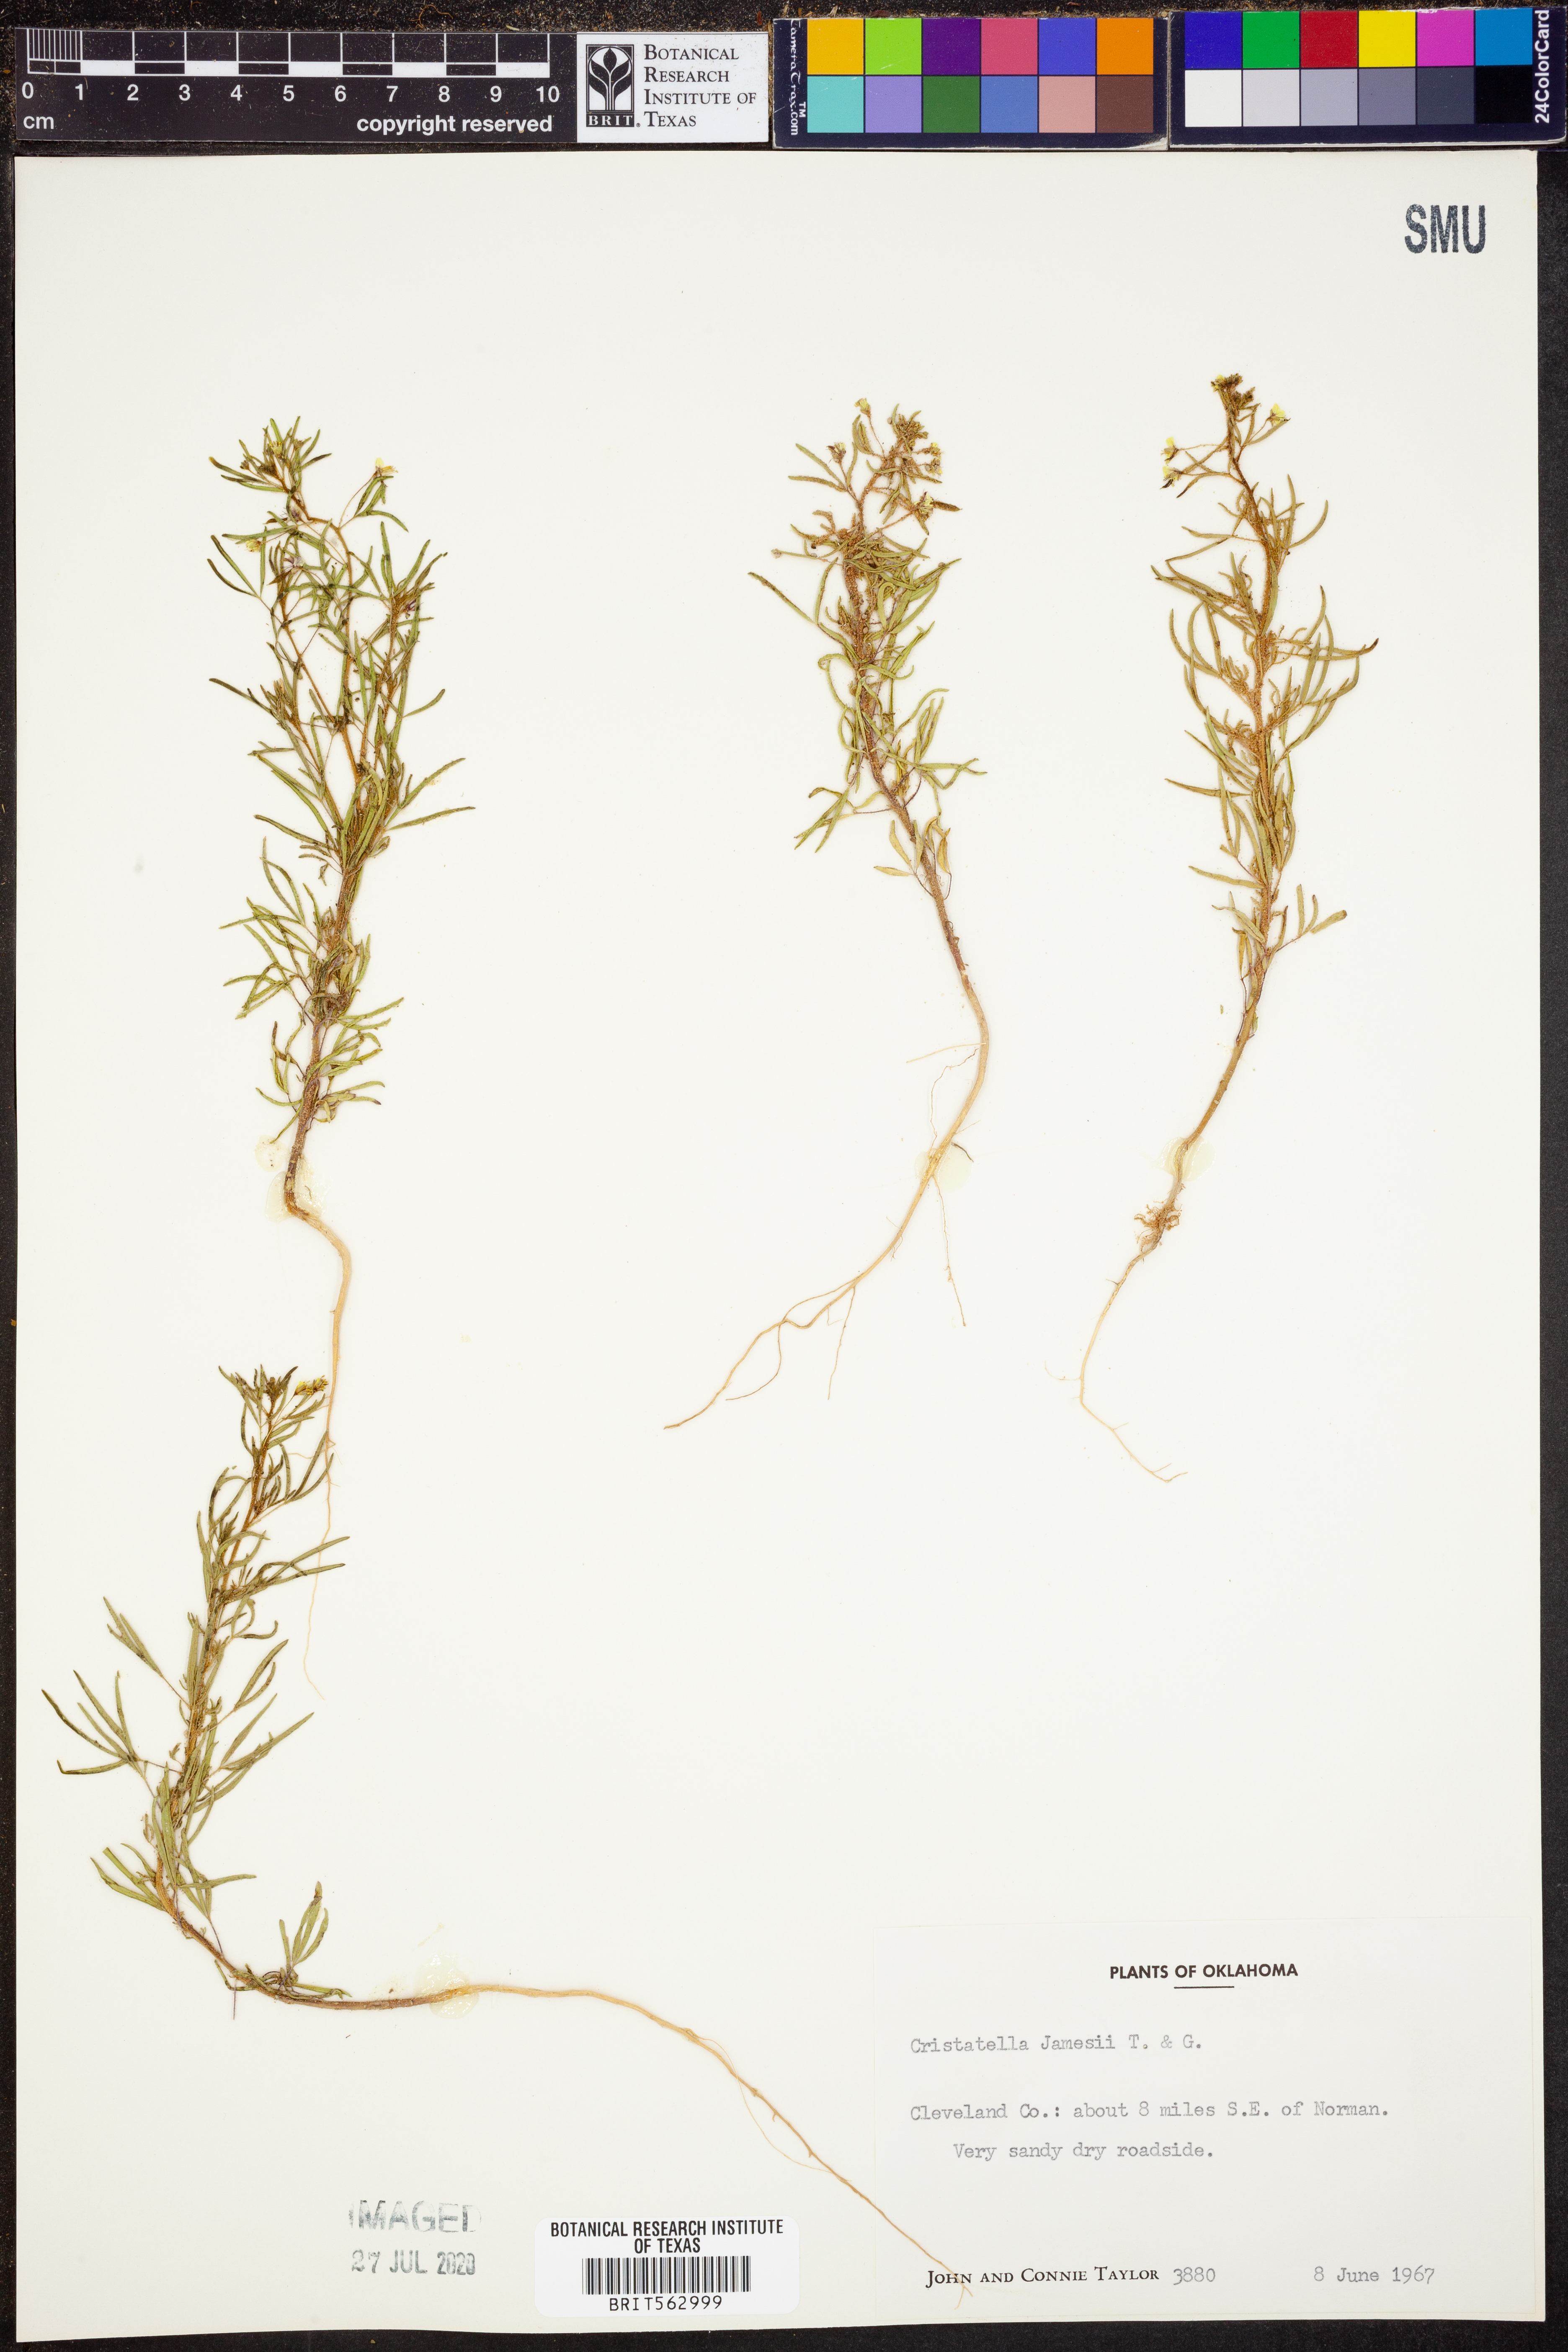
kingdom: Plantae
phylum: Tracheophyta
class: Magnoliopsida
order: Brassicales
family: Cleomaceae
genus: Polanisia
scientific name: Polanisia jamesii
